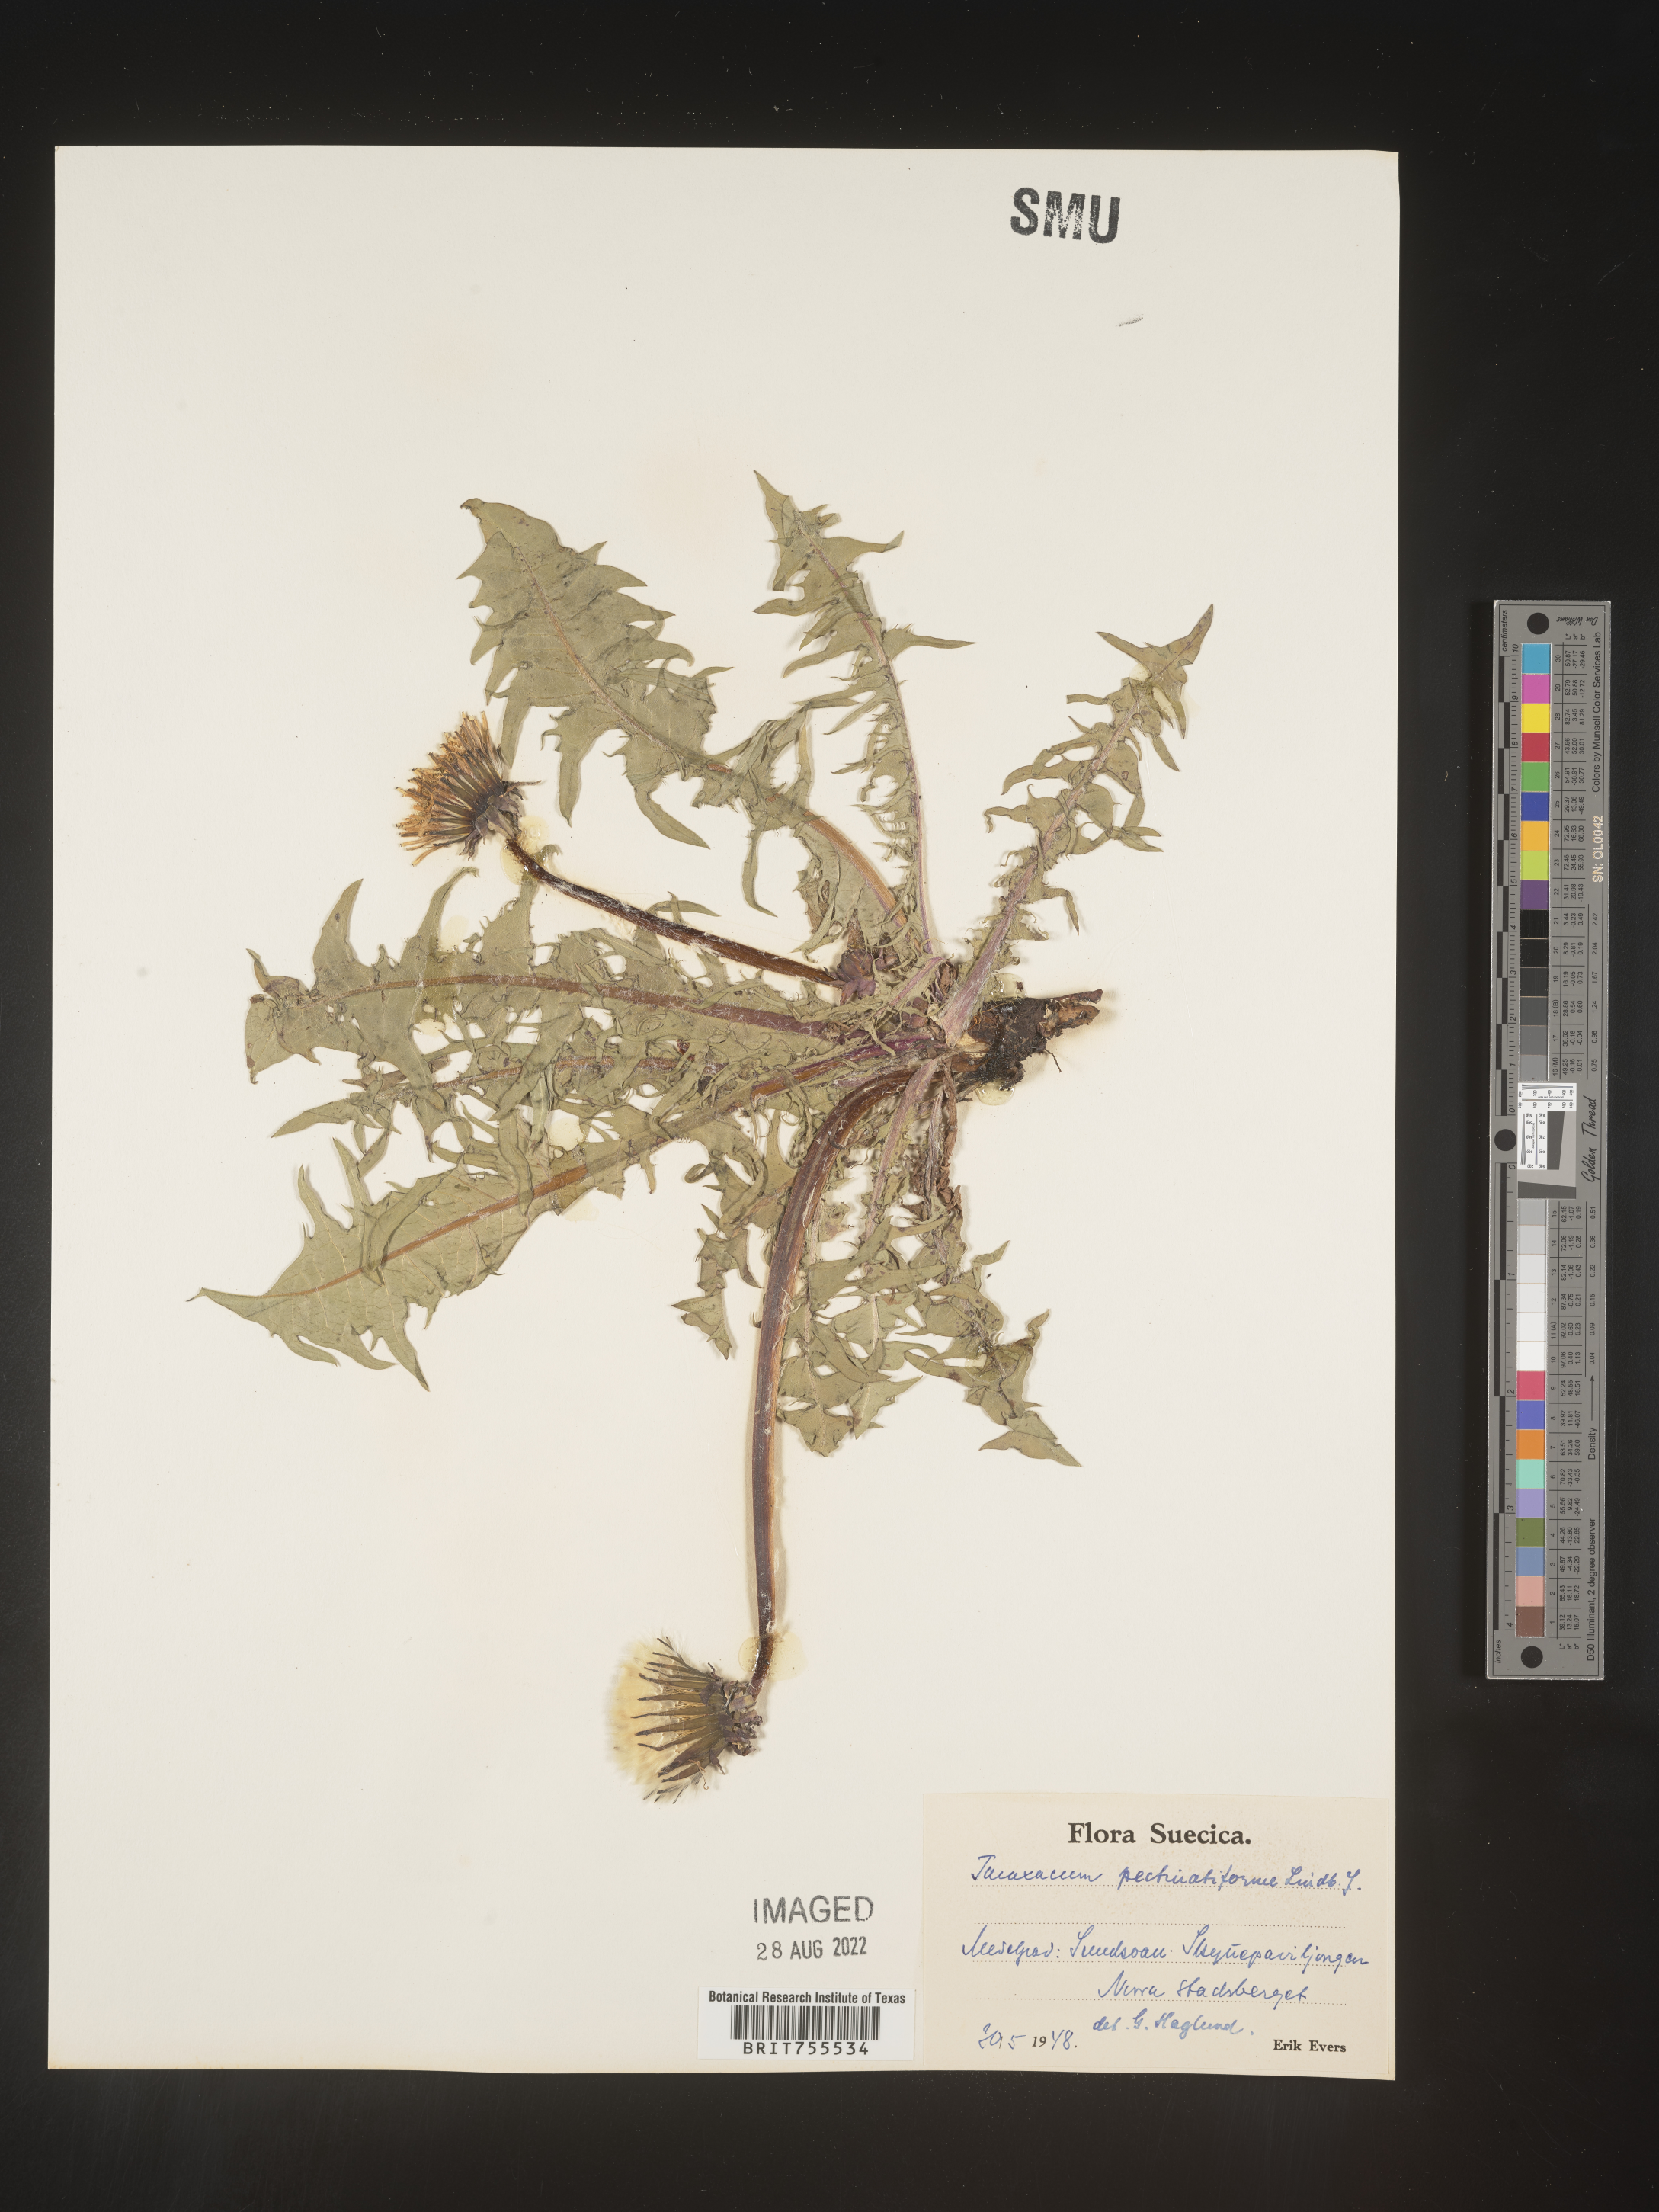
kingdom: Plantae
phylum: Tracheophyta
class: Magnoliopsida
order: Asterales
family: Asteraceae
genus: Taraxacum
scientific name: Taraxacum
